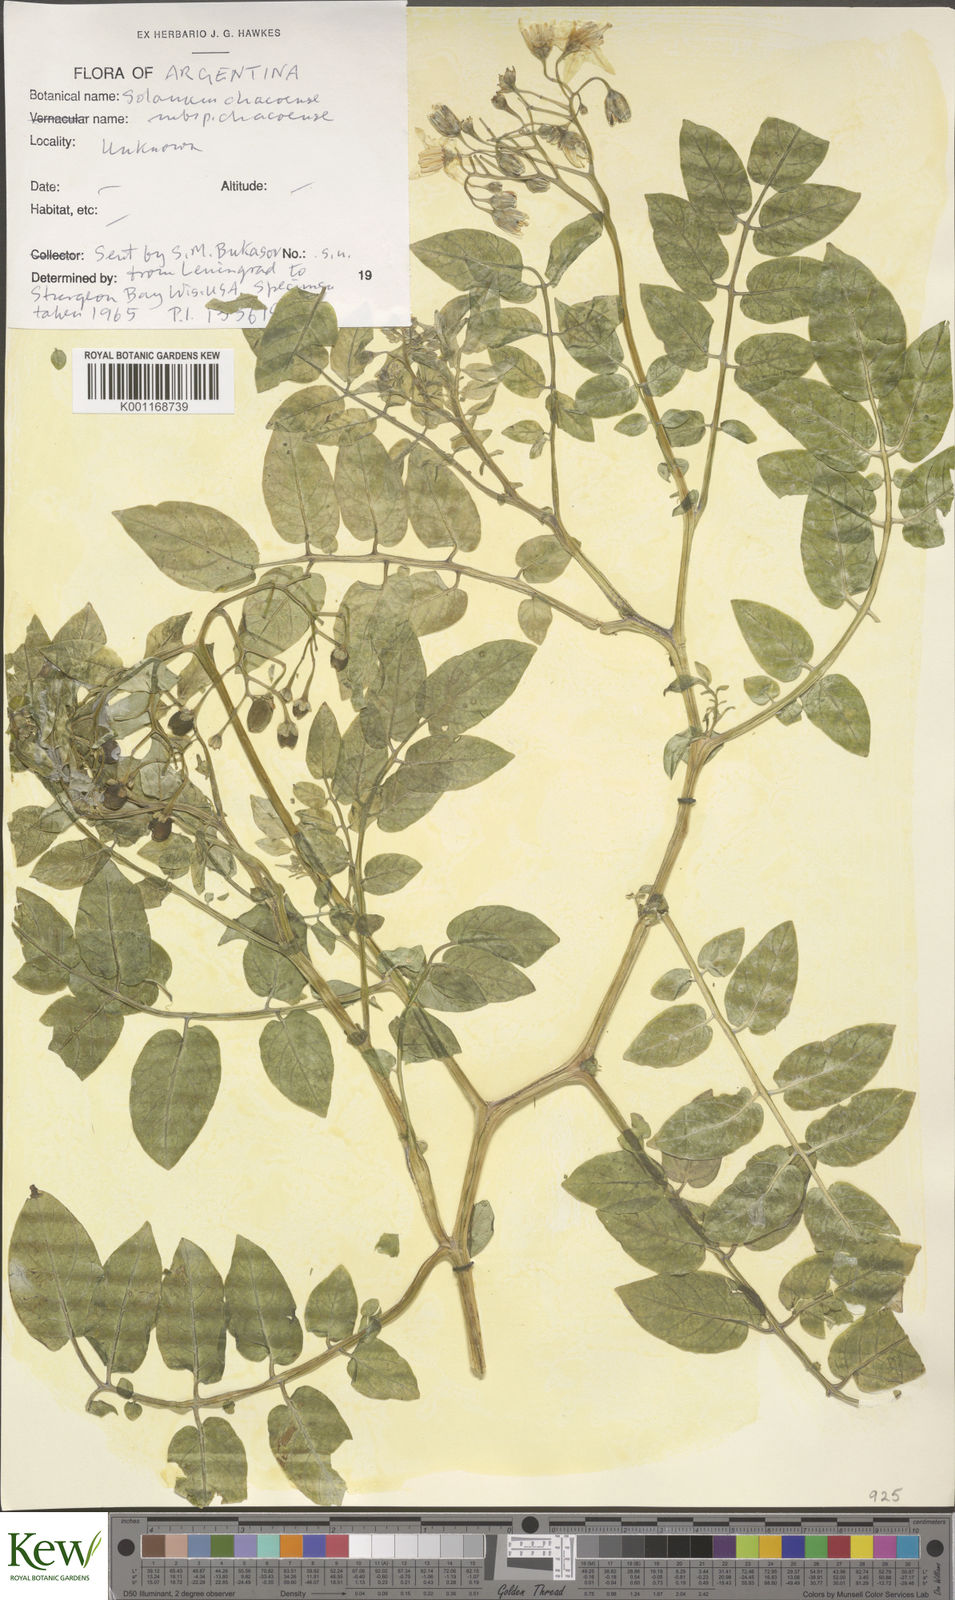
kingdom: Plantae
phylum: Tracheophyta
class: Magnoliopsida
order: Solanales
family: Solanaceae
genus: Solanum
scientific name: Solanum chacoense
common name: Chaco potato
